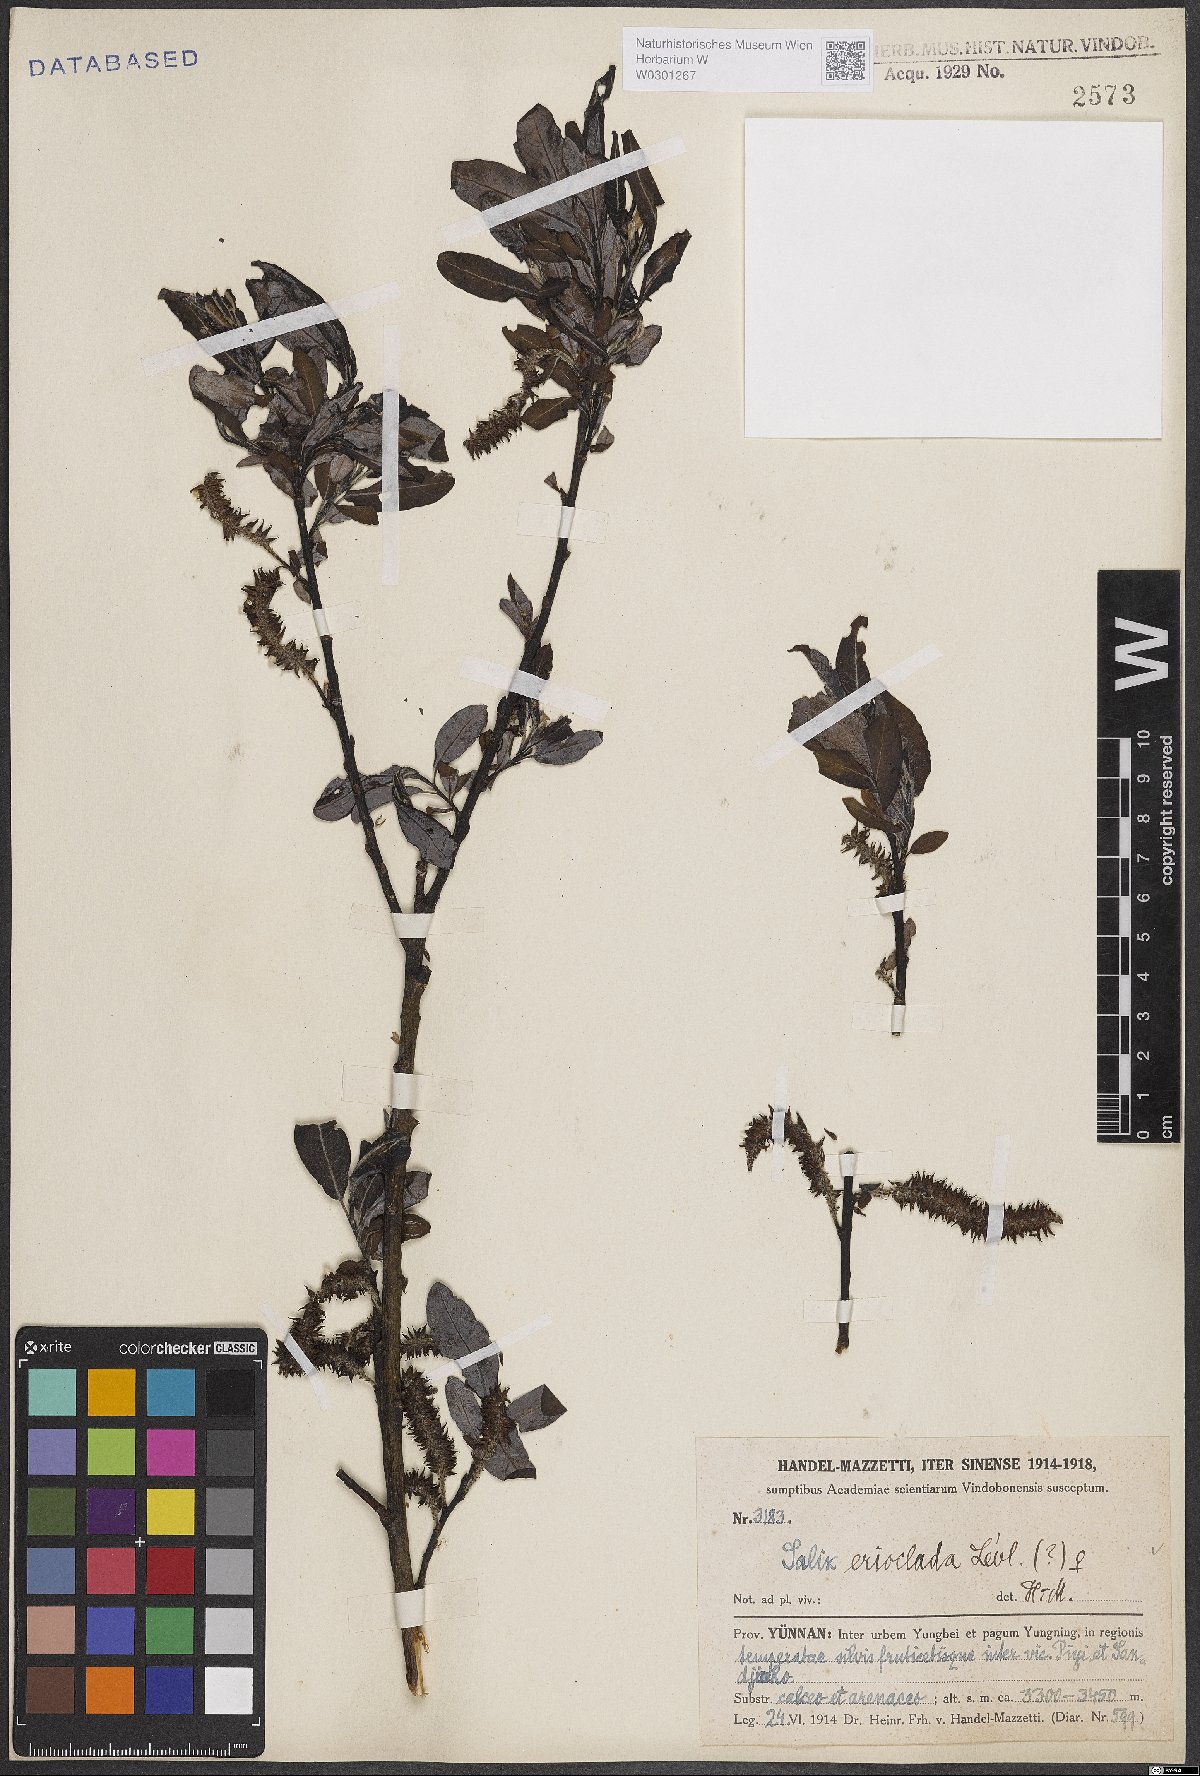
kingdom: Plantae
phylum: Tracheophyta
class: Magnoliopsida
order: Malpighiales
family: Salicaceae
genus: Salix
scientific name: Salix erioclada
